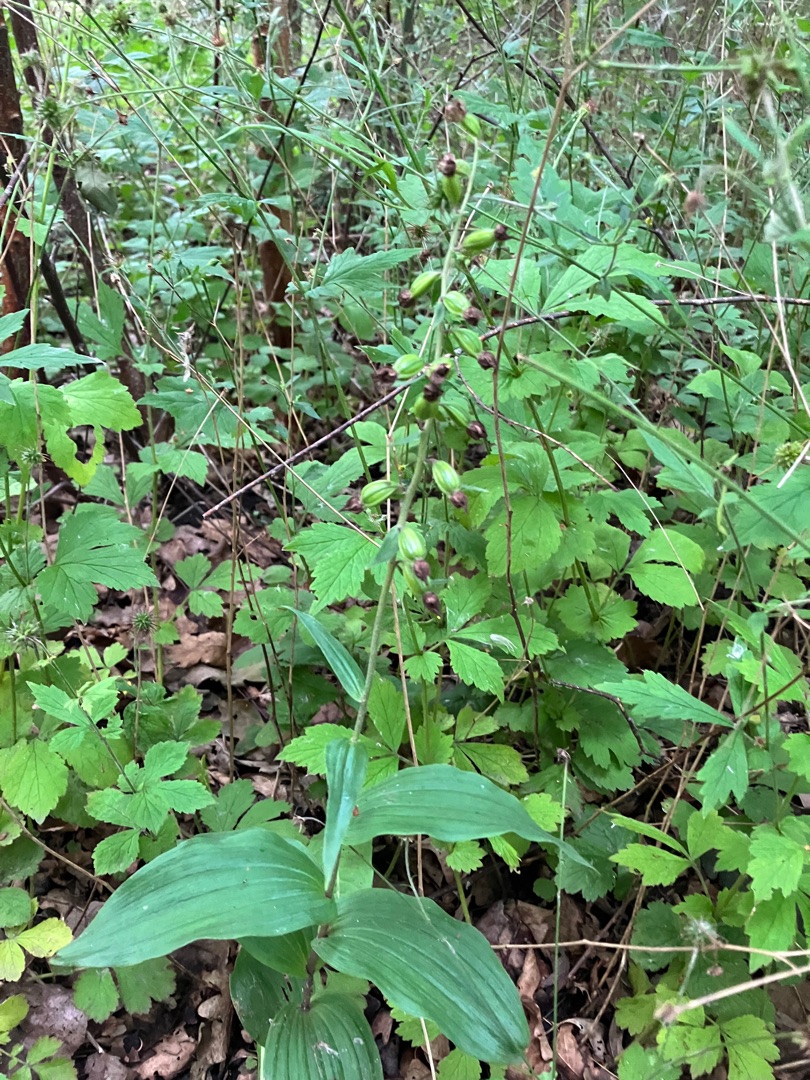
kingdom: Plantae
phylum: Tracheophyta
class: Liliopsida
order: Asparagales
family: Orchidaceae
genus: Epipactis
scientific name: Epipactis helleborine
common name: Skov-hullæbe
